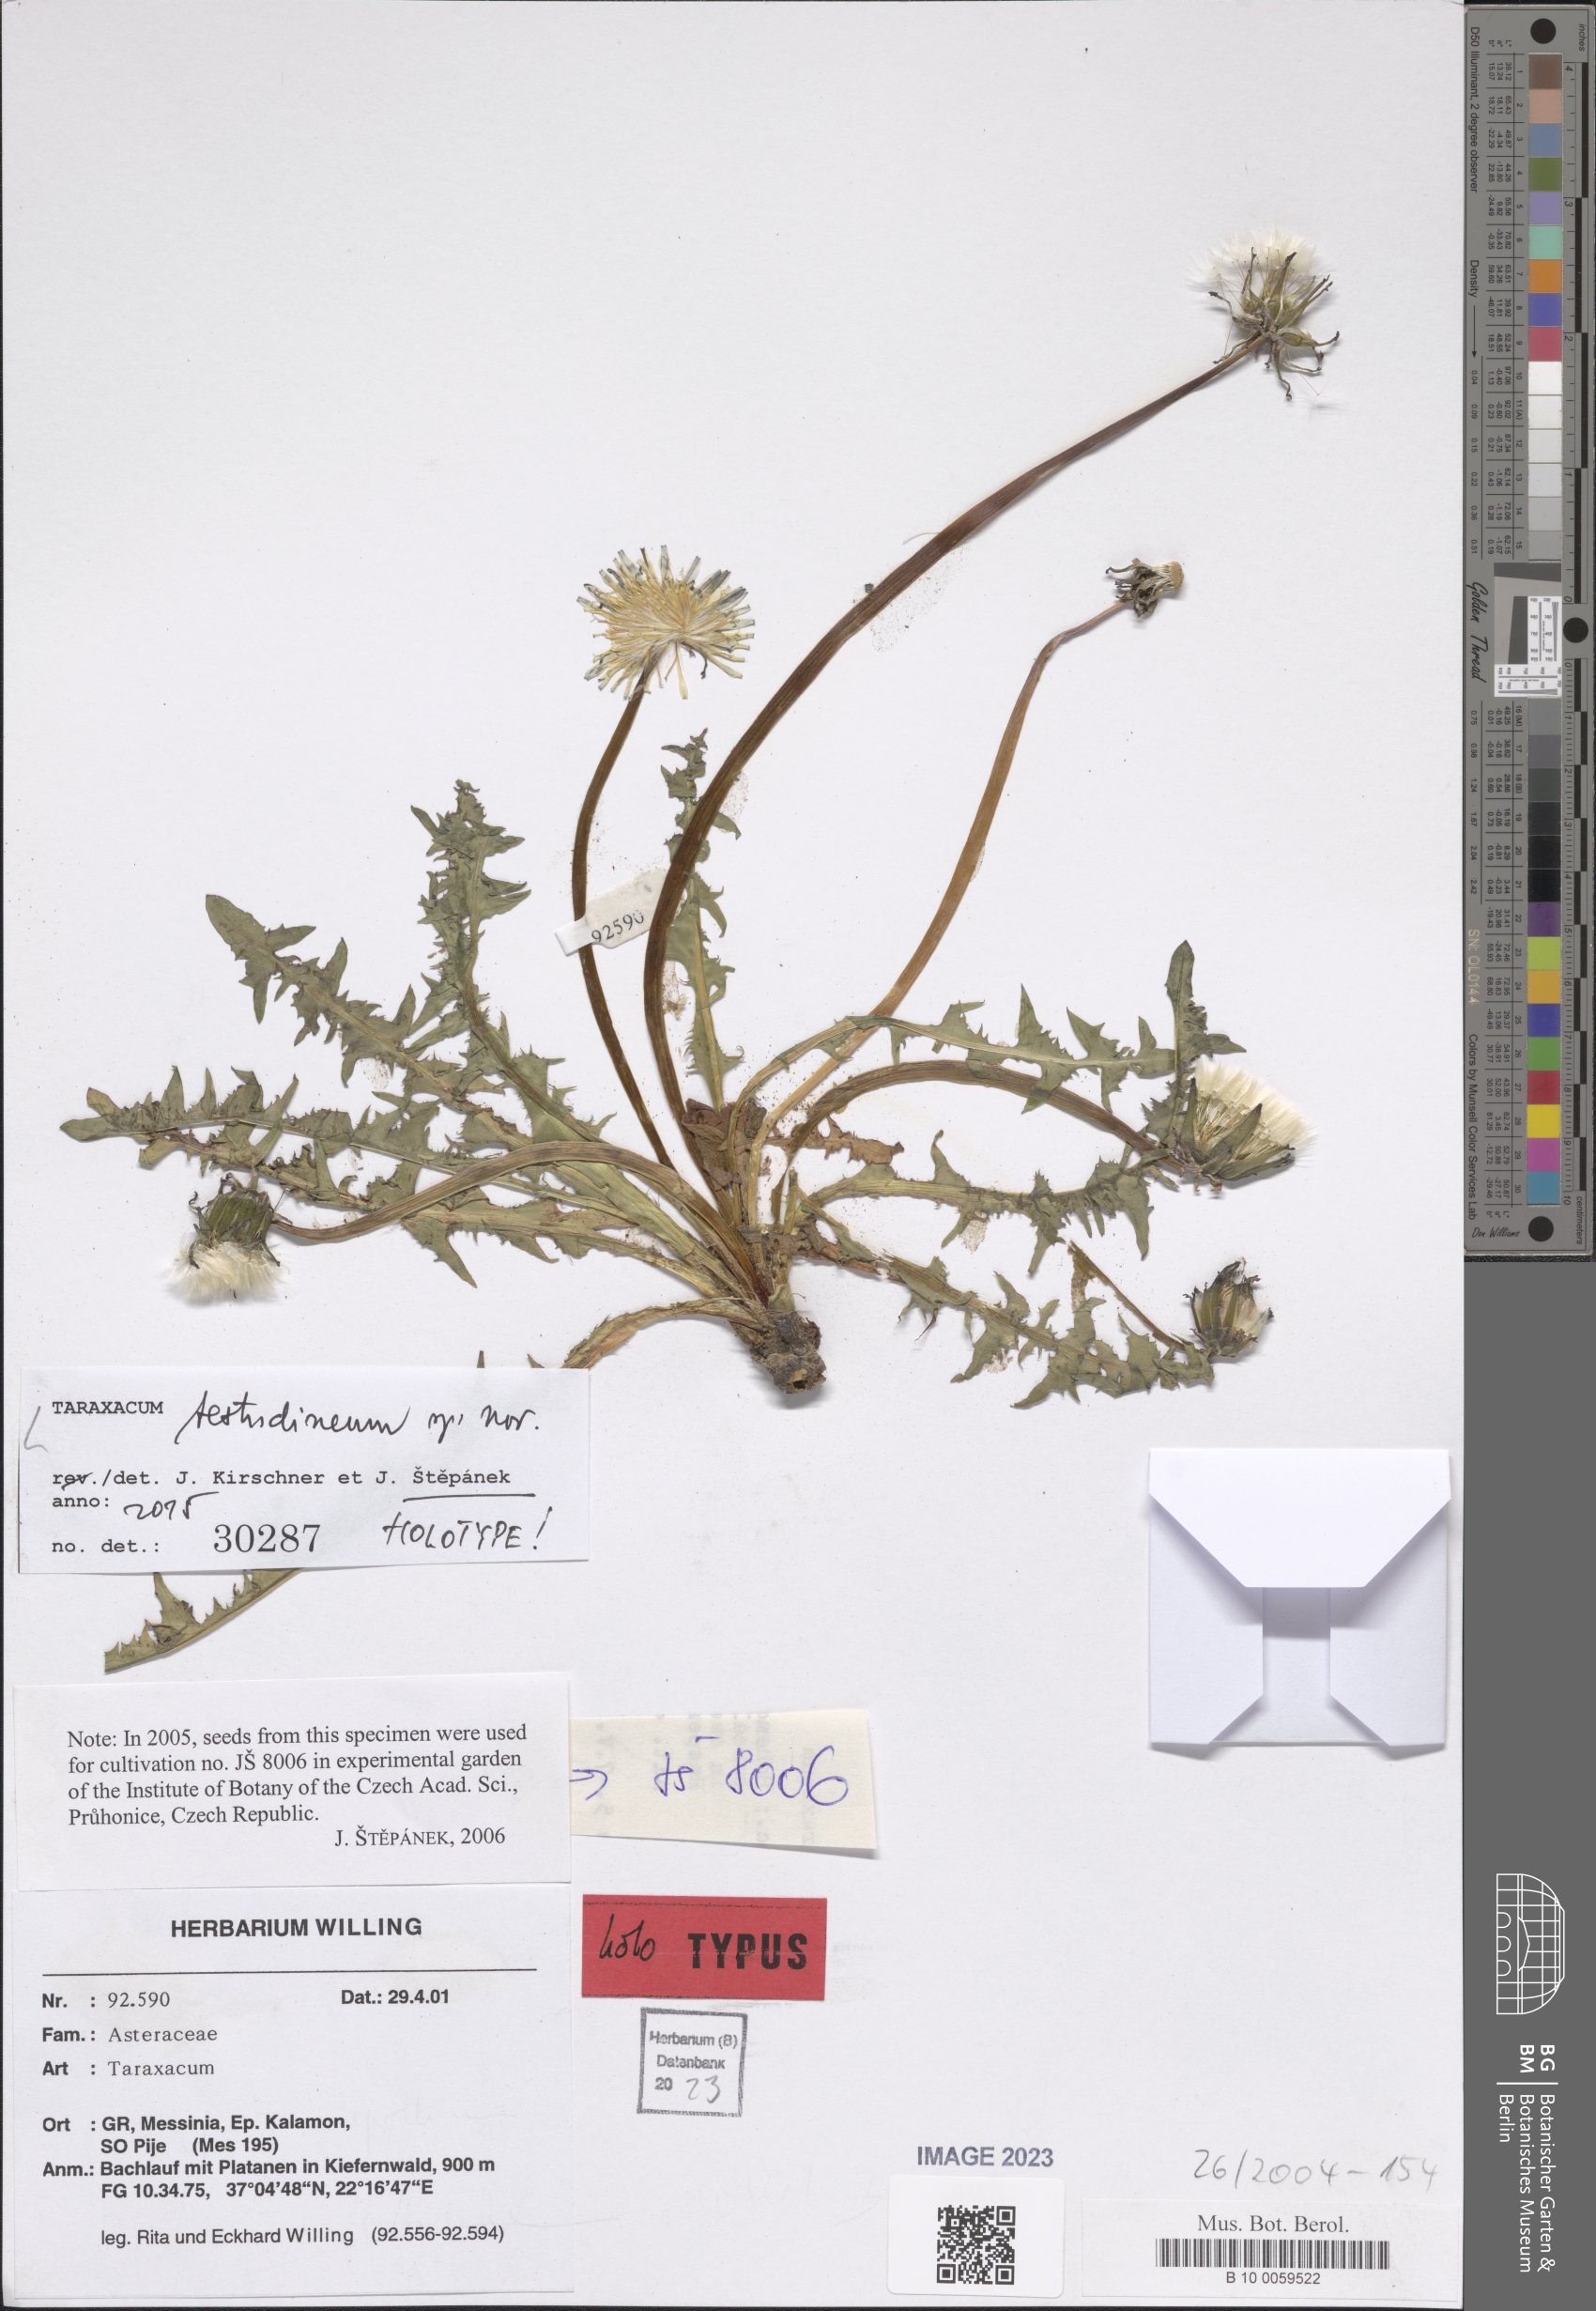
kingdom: Plantae
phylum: Tracheophyta
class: Magnoliopsida
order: Asterales
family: Asteraceae
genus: Taraxacum
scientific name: Taraxacum
